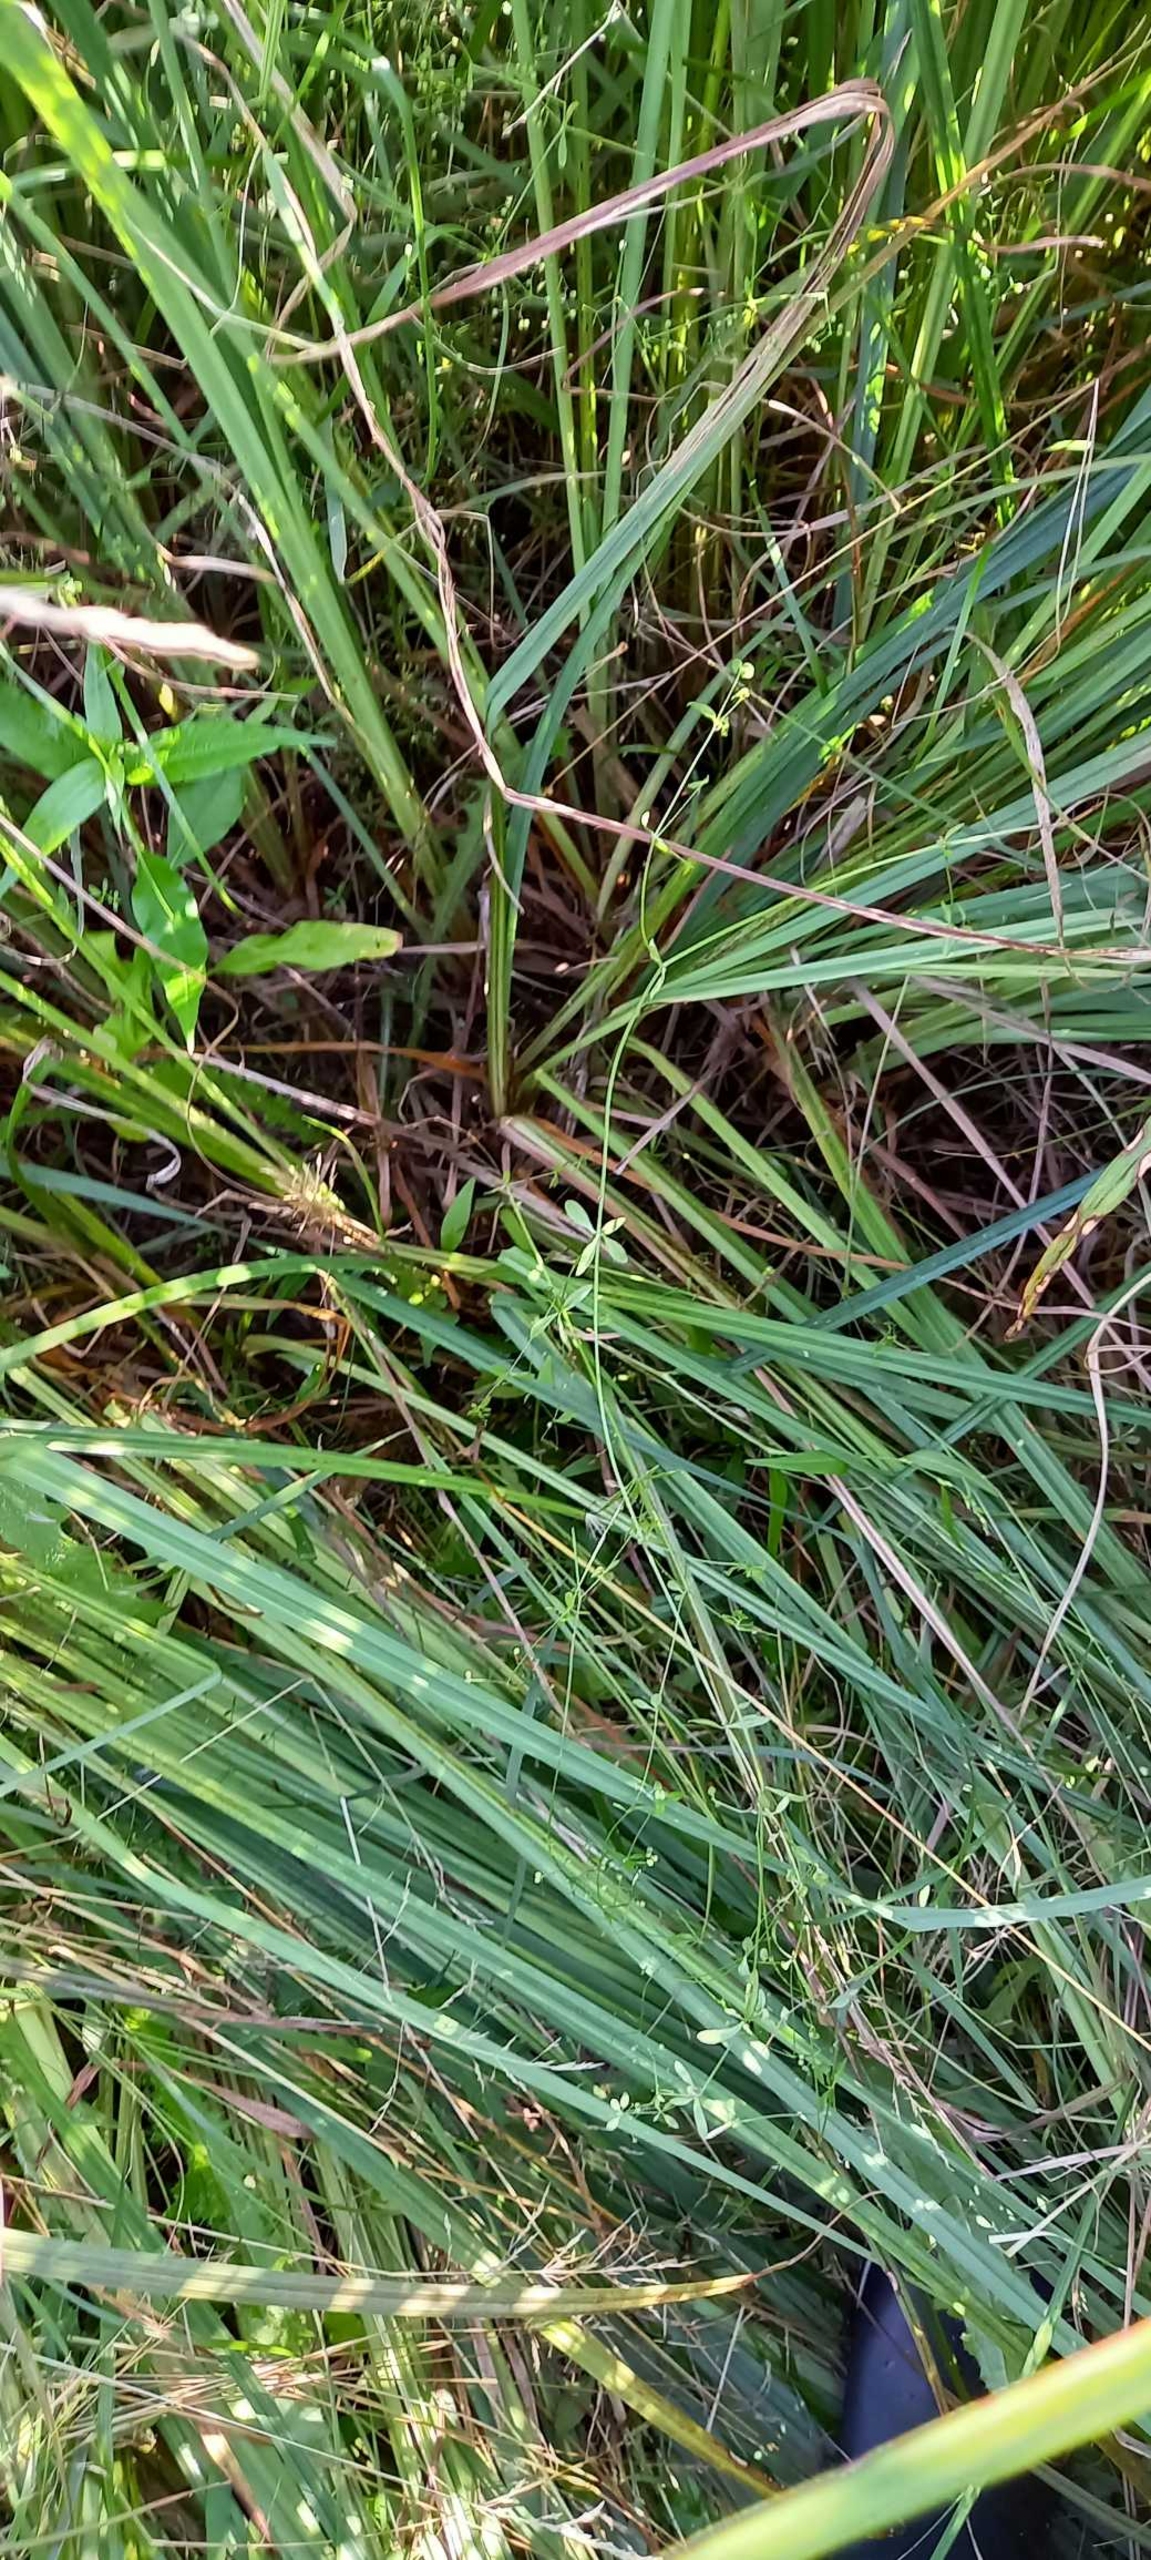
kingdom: Plantae
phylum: Tracheophyta
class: Magnoliopsida
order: Gentianales
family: Rubiaceae
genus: Galium
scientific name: Galium palustre
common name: Kær-snerre
